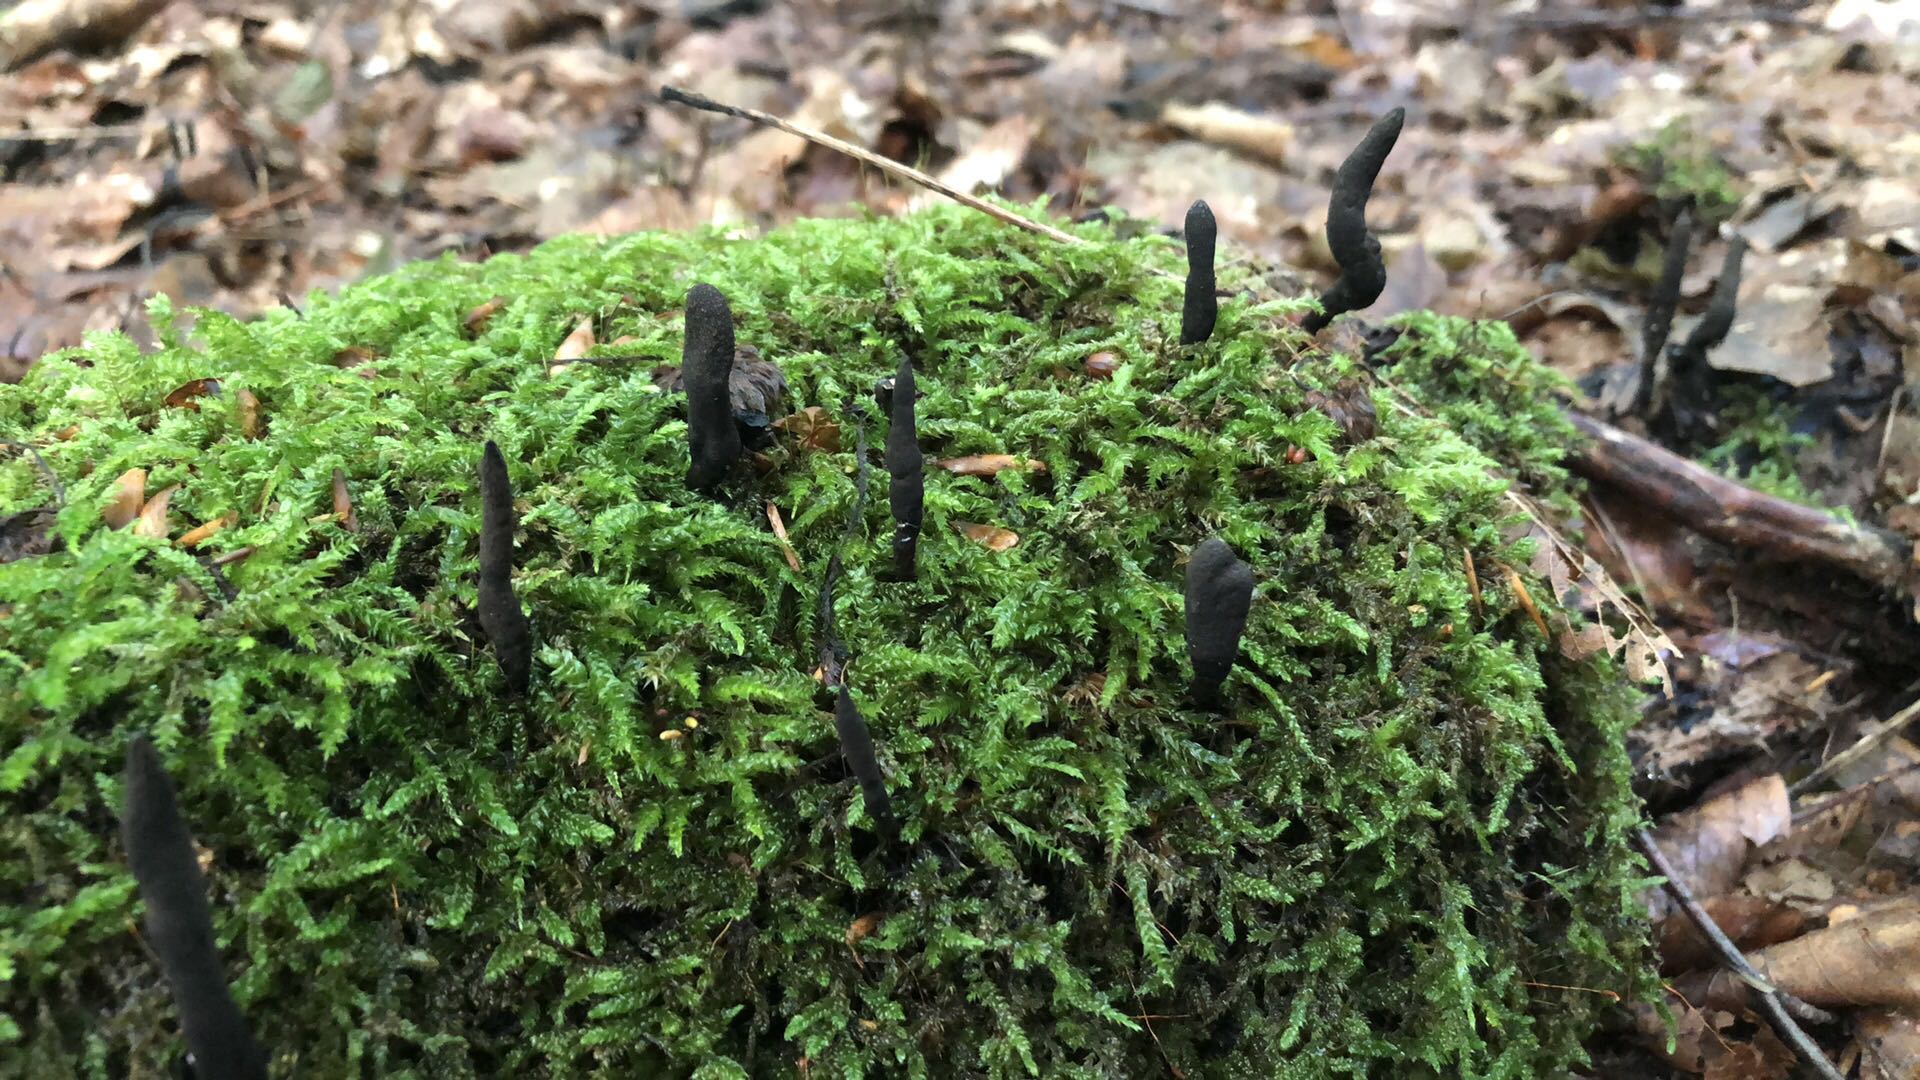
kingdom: Fungi
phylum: Ascomycota
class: Sordariomycetes
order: Xylariales
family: Xylariaceae
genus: Xylaria
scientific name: Xylaria longipes
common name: slank stødsvamp
